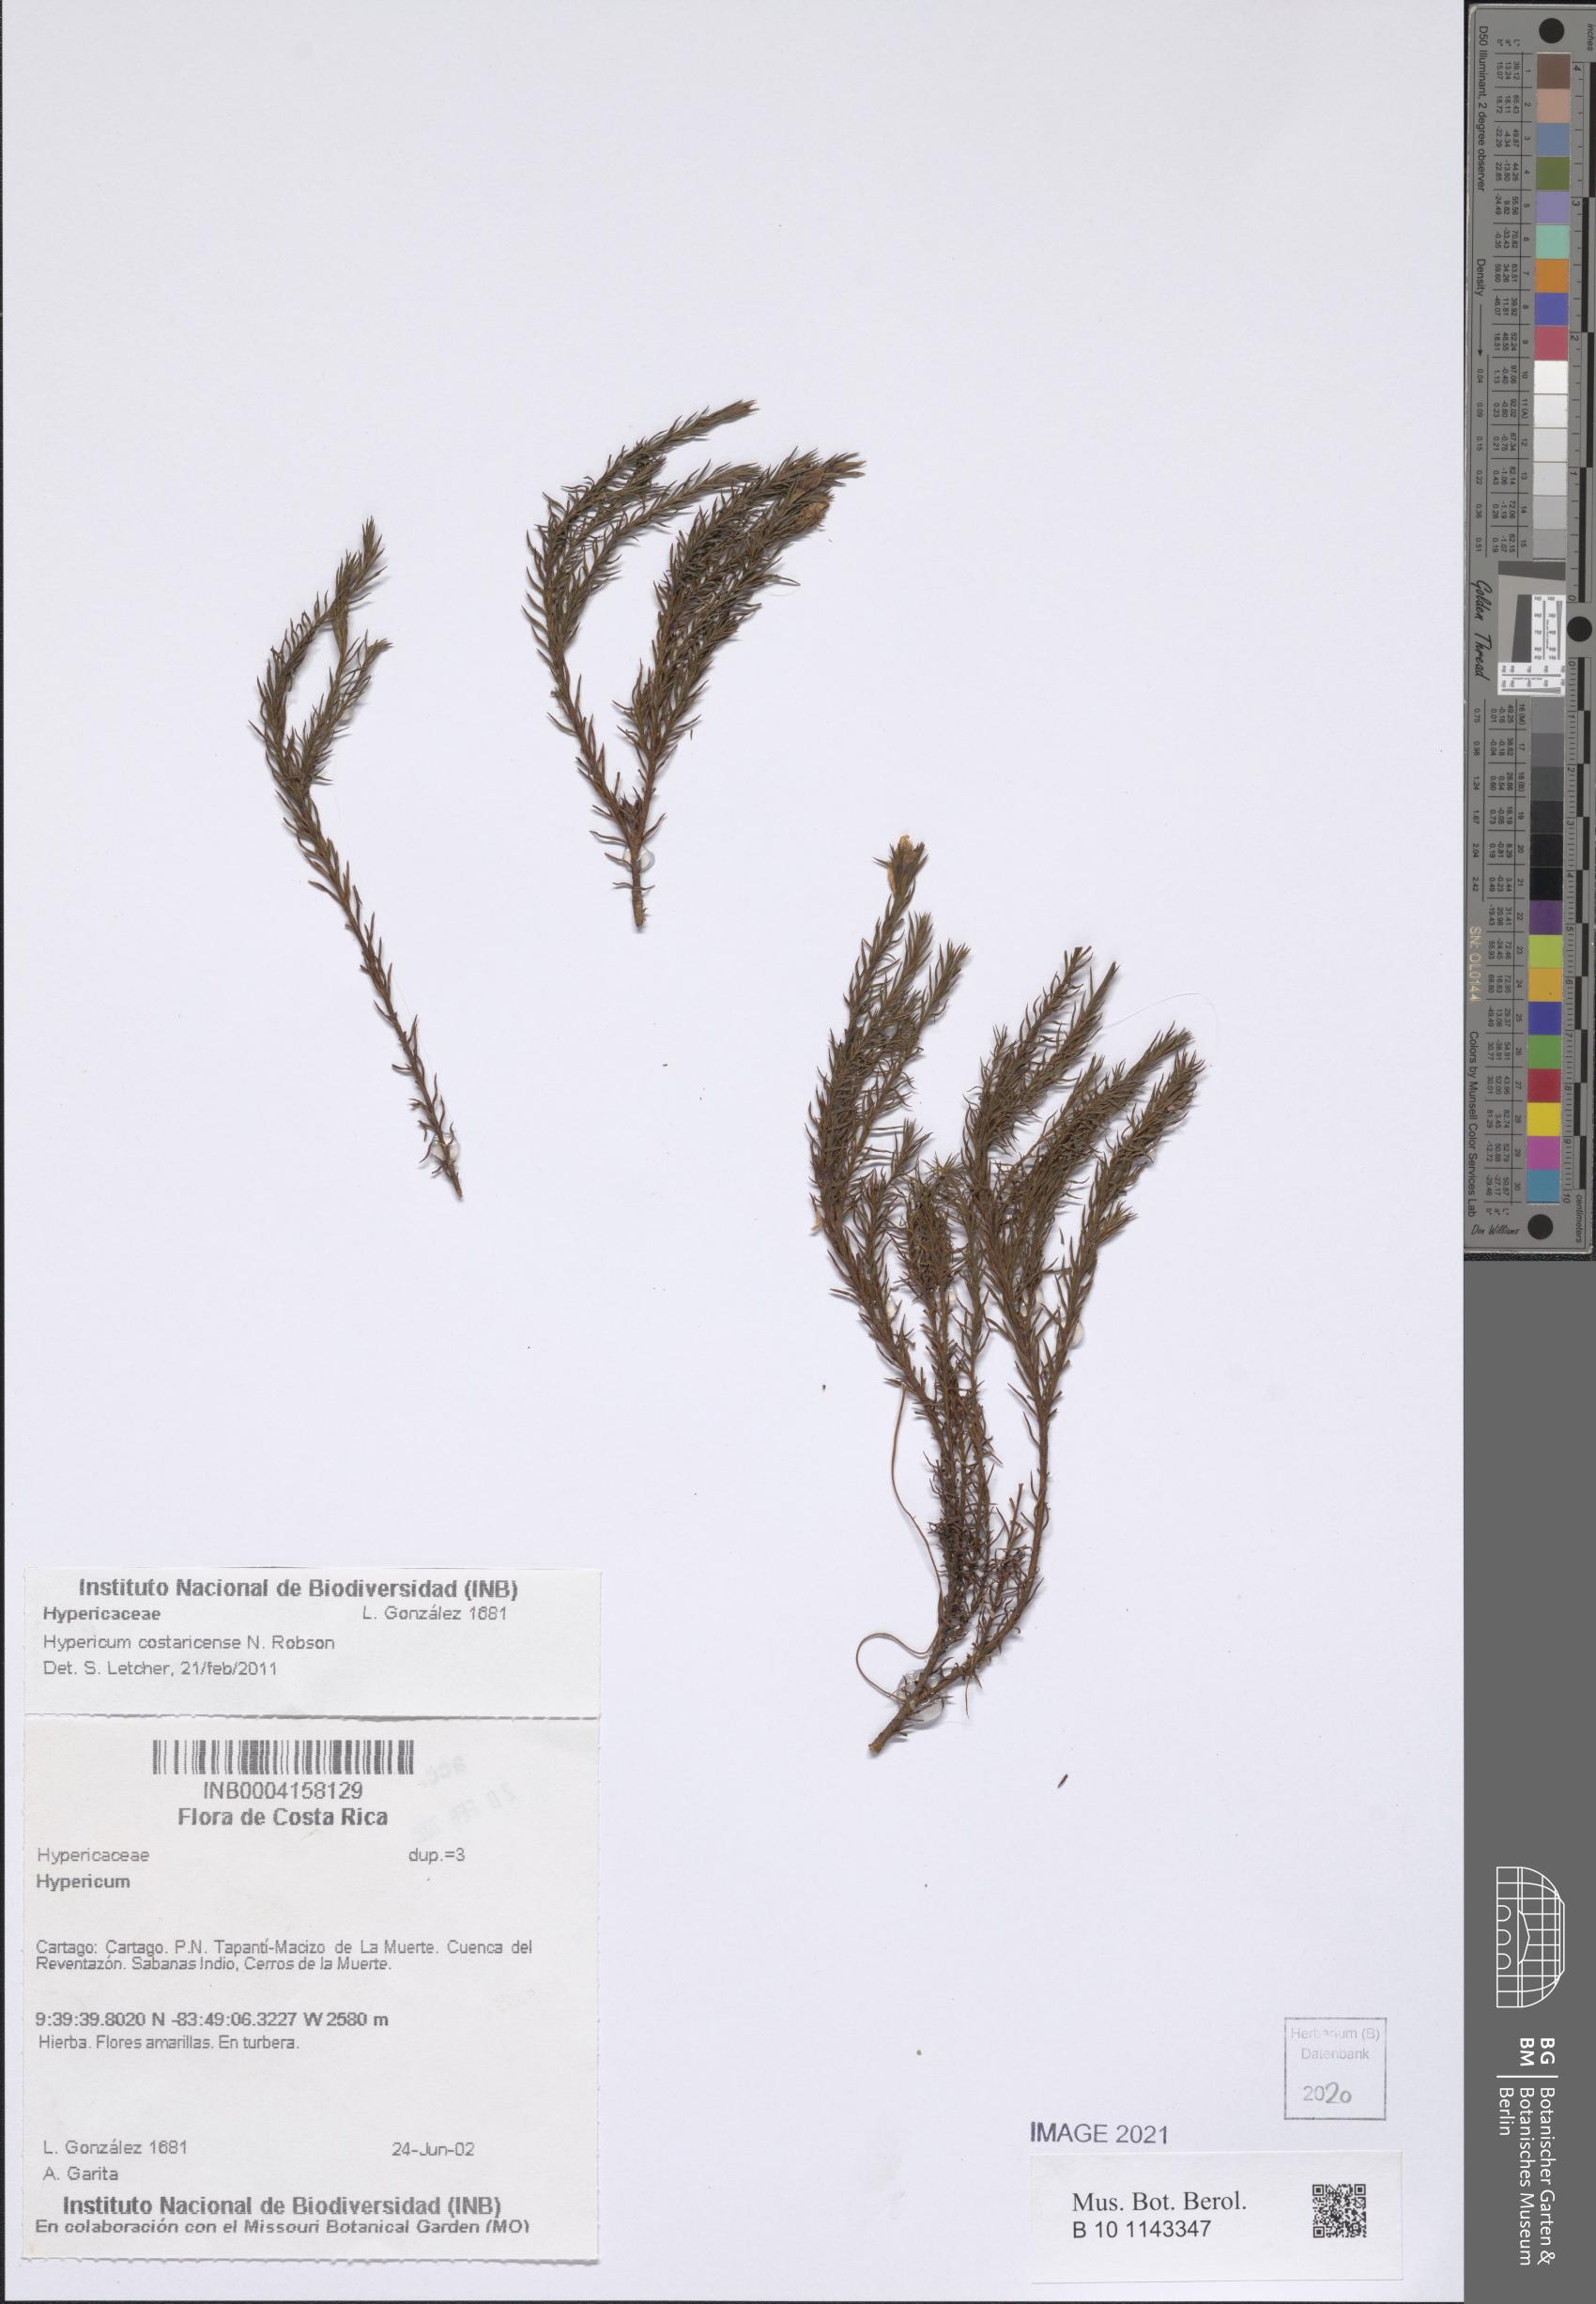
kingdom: Plantae
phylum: Tracheophyta
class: Magnoliopsida
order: Malpighiales
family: Hypericaceae
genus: Hypericum
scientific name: Hypericum costaricense
